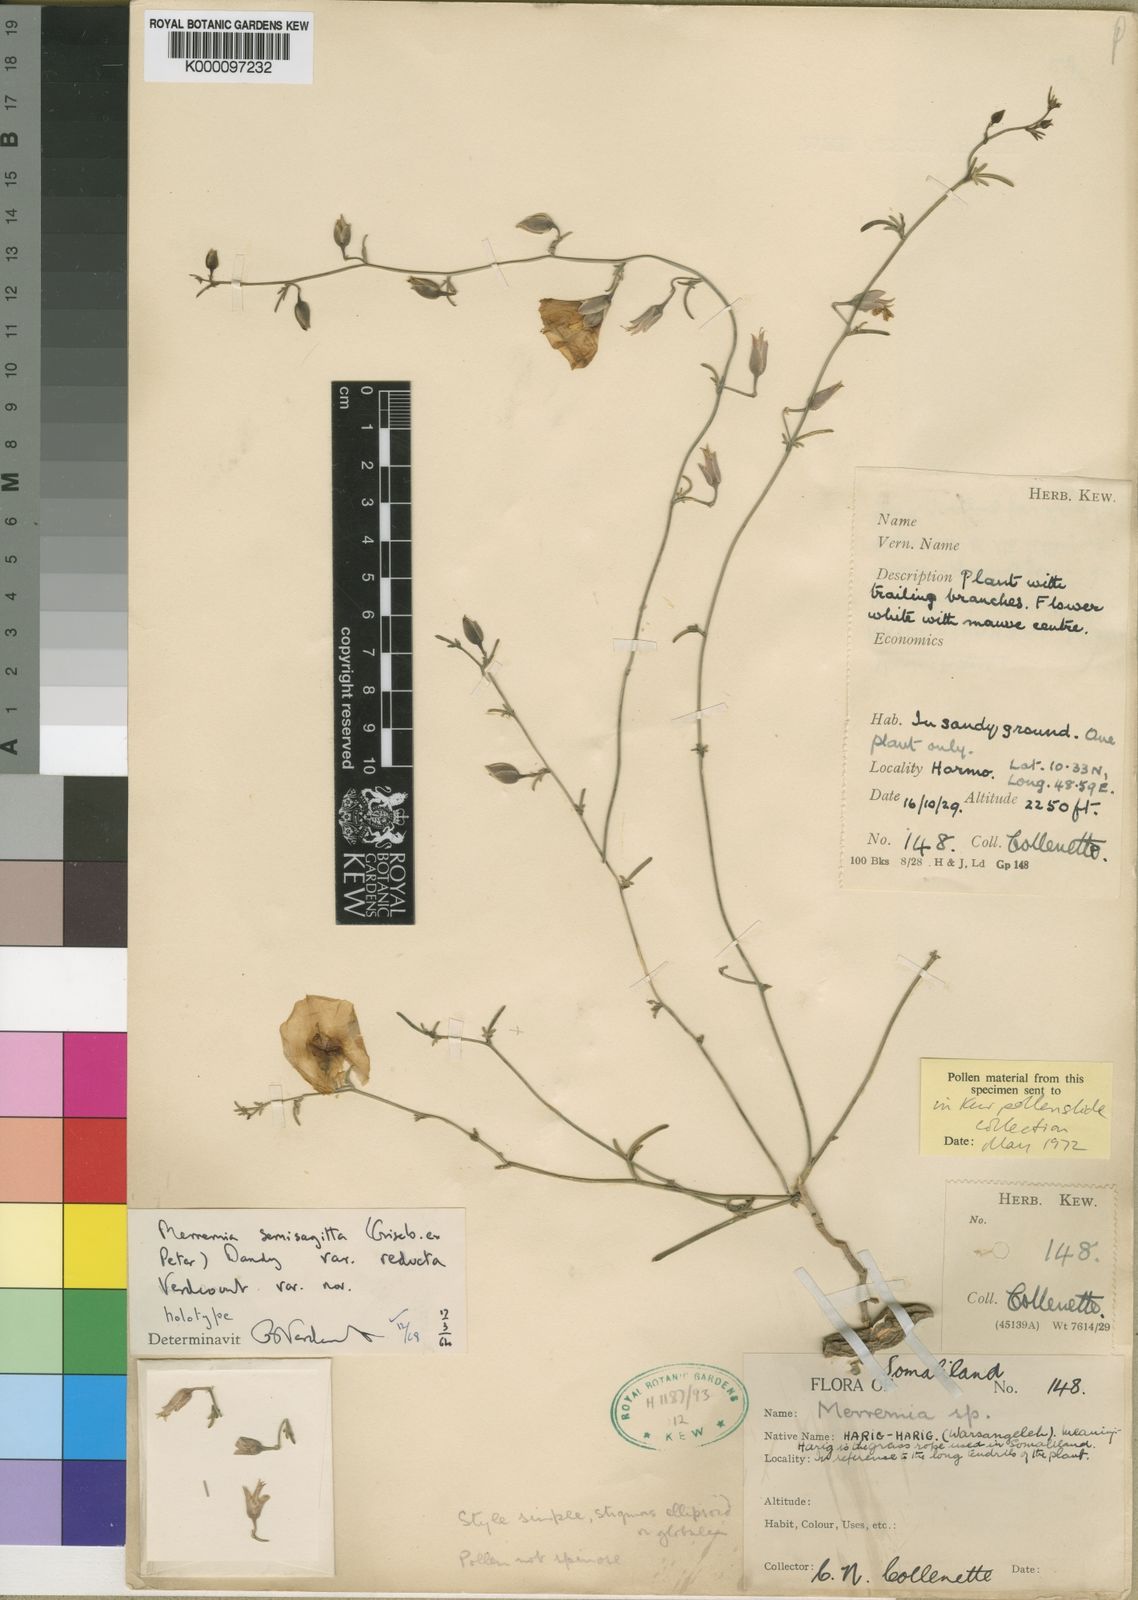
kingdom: Plantae
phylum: Tracheophyta
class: Magnoliopsida
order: Solanales
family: Convolvulaceae
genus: Distimake
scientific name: Distimake
